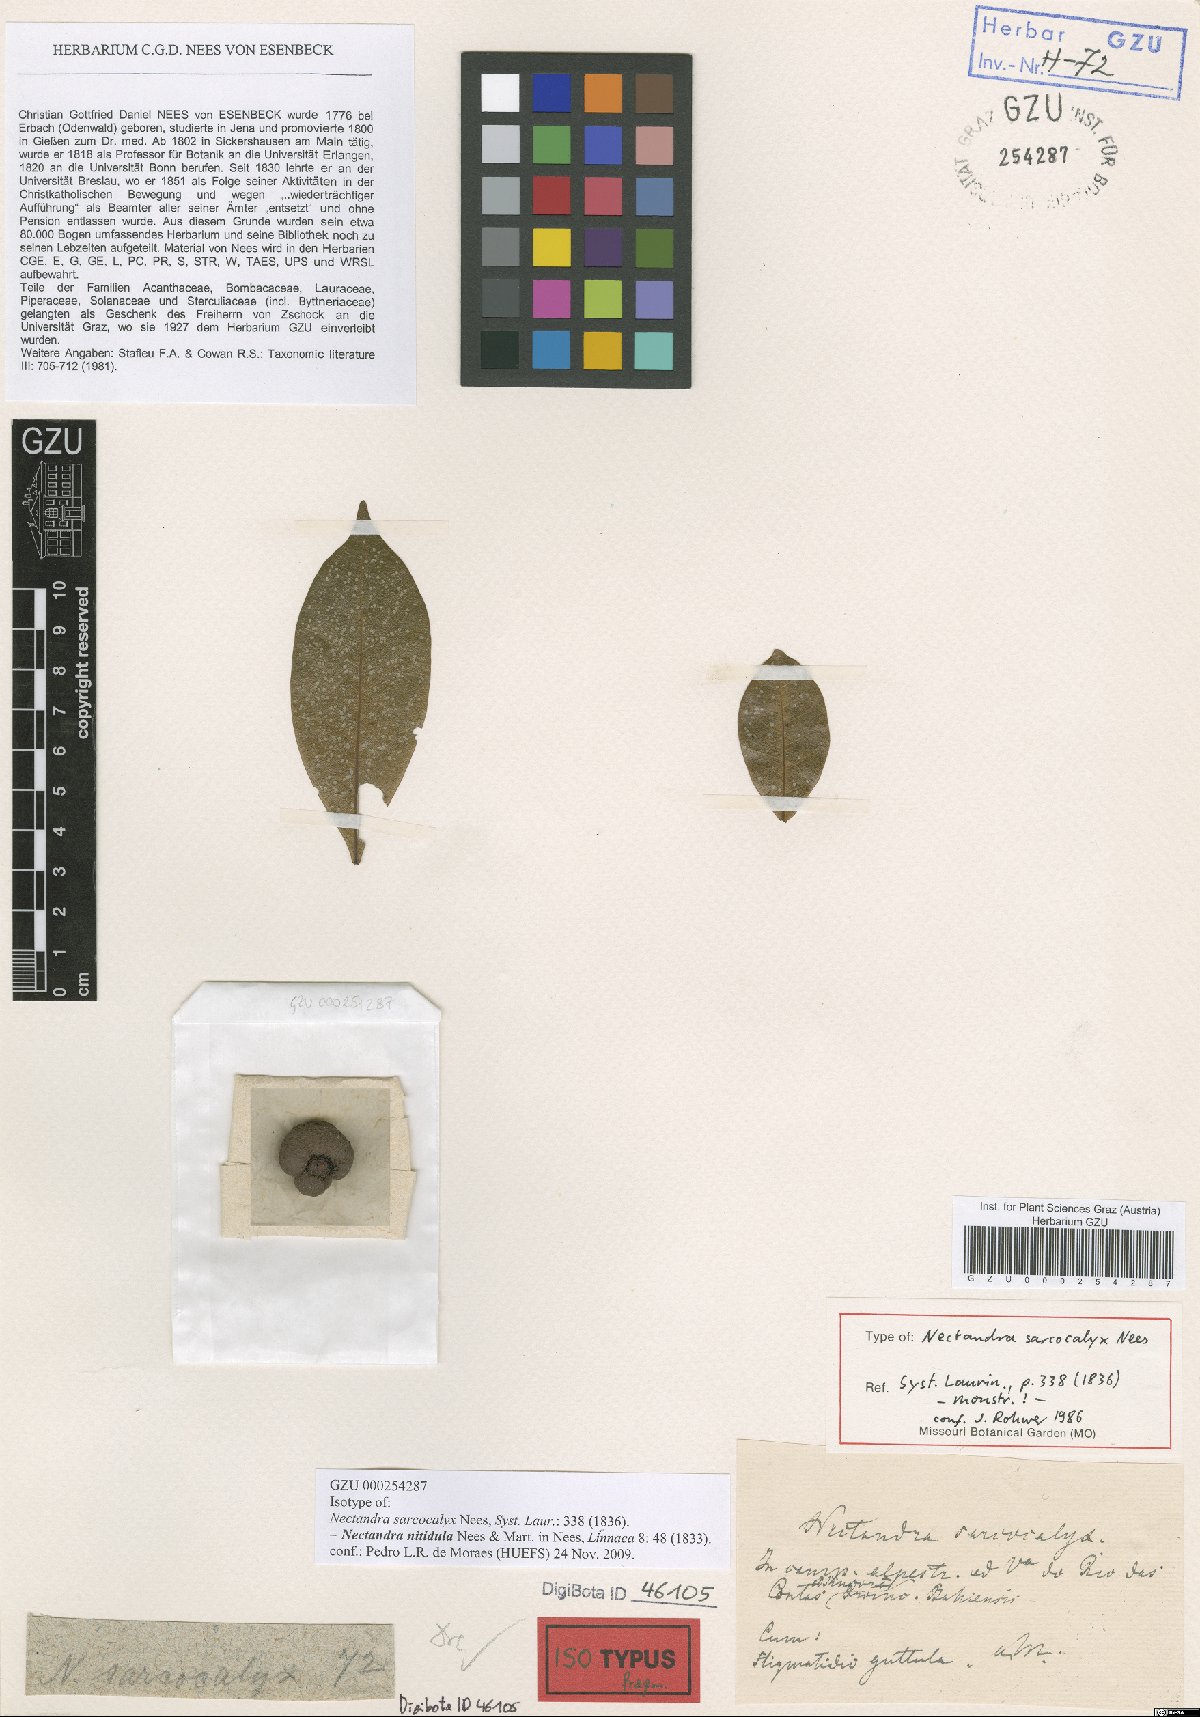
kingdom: Plantae
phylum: Tracheophyta
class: Magnoliopsida
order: Laurales
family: Lauraceae
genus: Nectandra
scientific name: Nectandra nitidula
